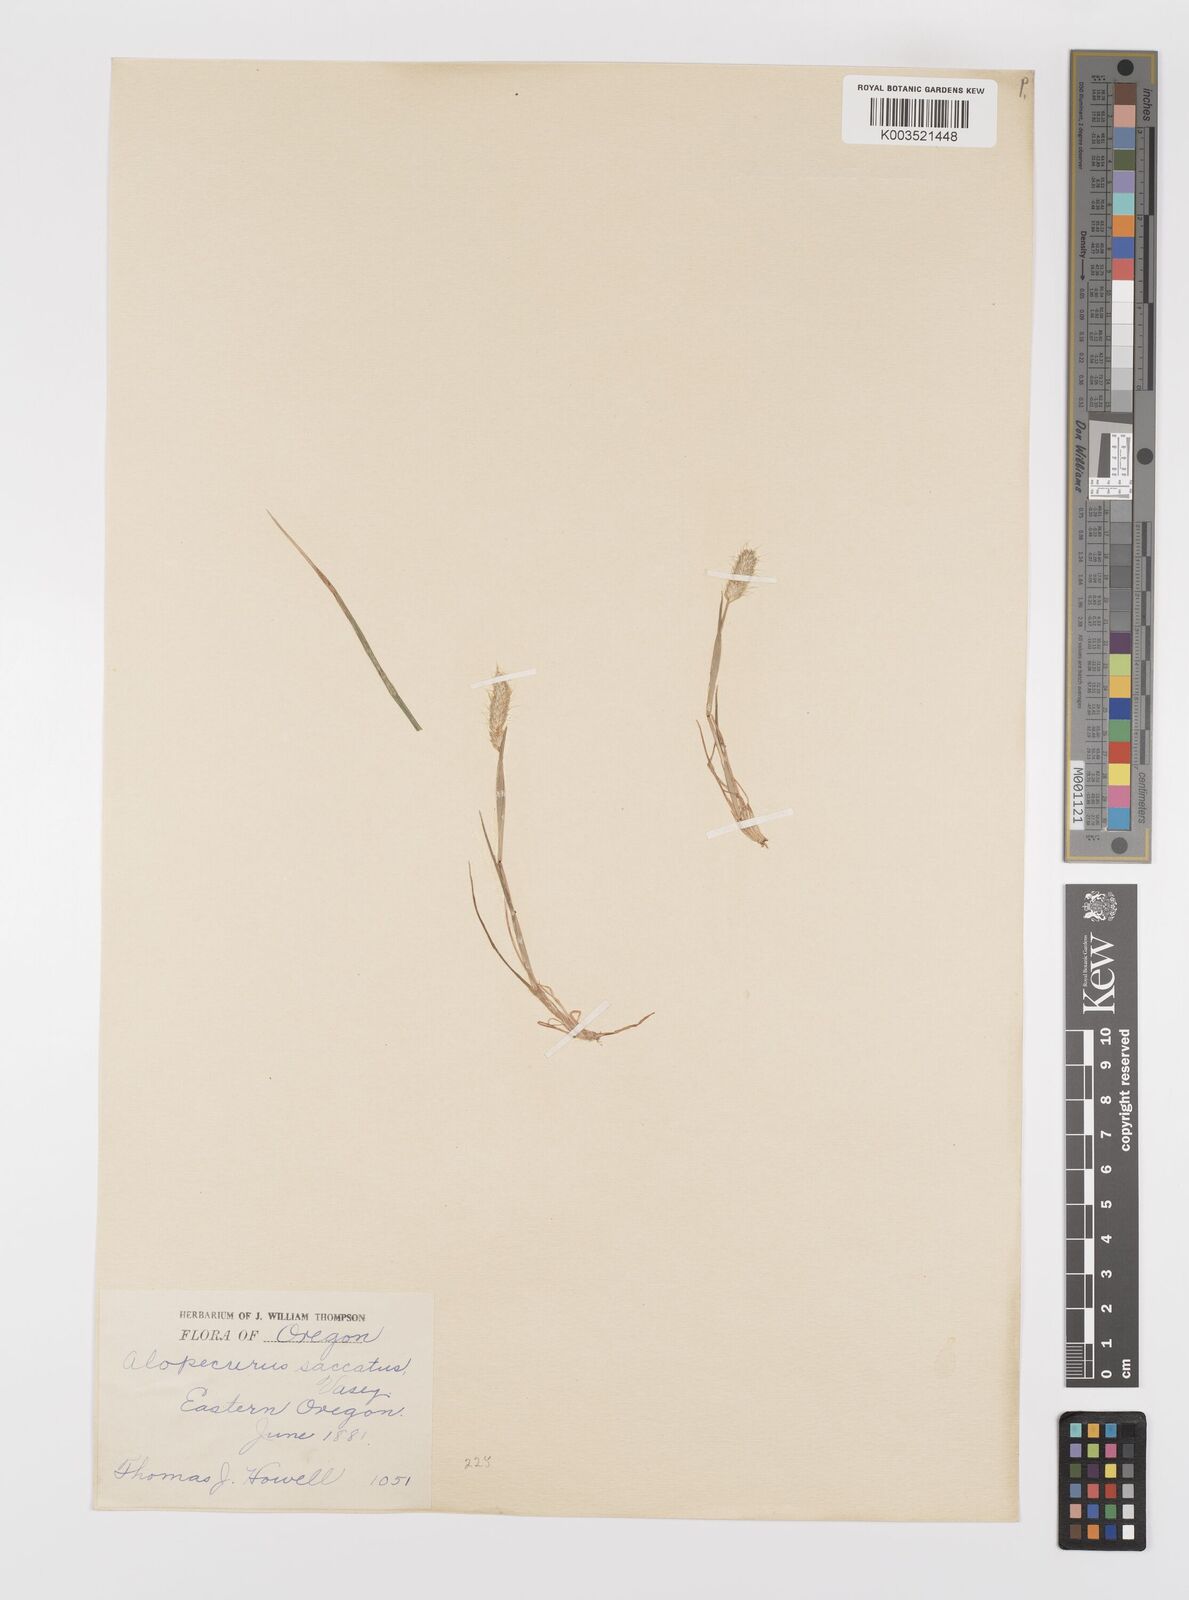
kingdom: Plantae
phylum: Tracheophyta
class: Liliopsida
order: Poales
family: Poaceae
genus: Alopecurus
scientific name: Alopecurus saccatus
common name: Pacific foxtail
